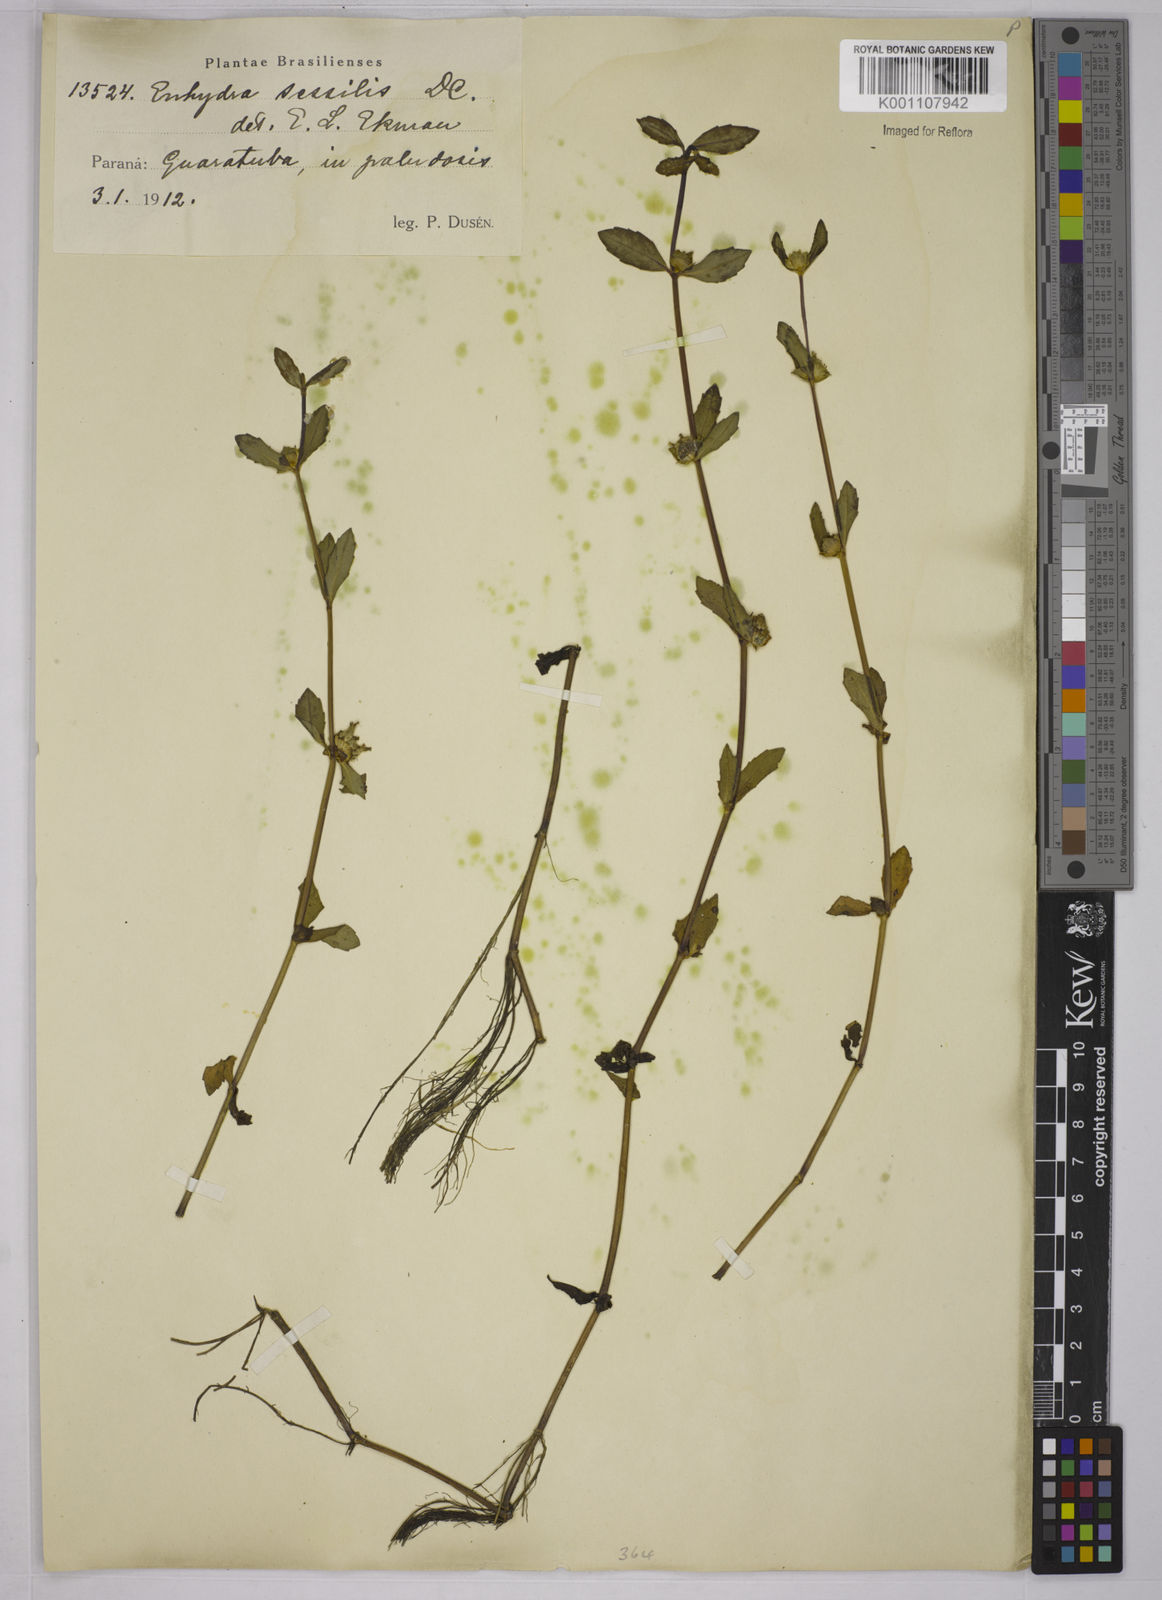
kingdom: Plantae
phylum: Tracheophyta
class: Magnoliopsida
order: Asterales
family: Asteraceae
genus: Enydra
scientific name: Enydra sessilis
